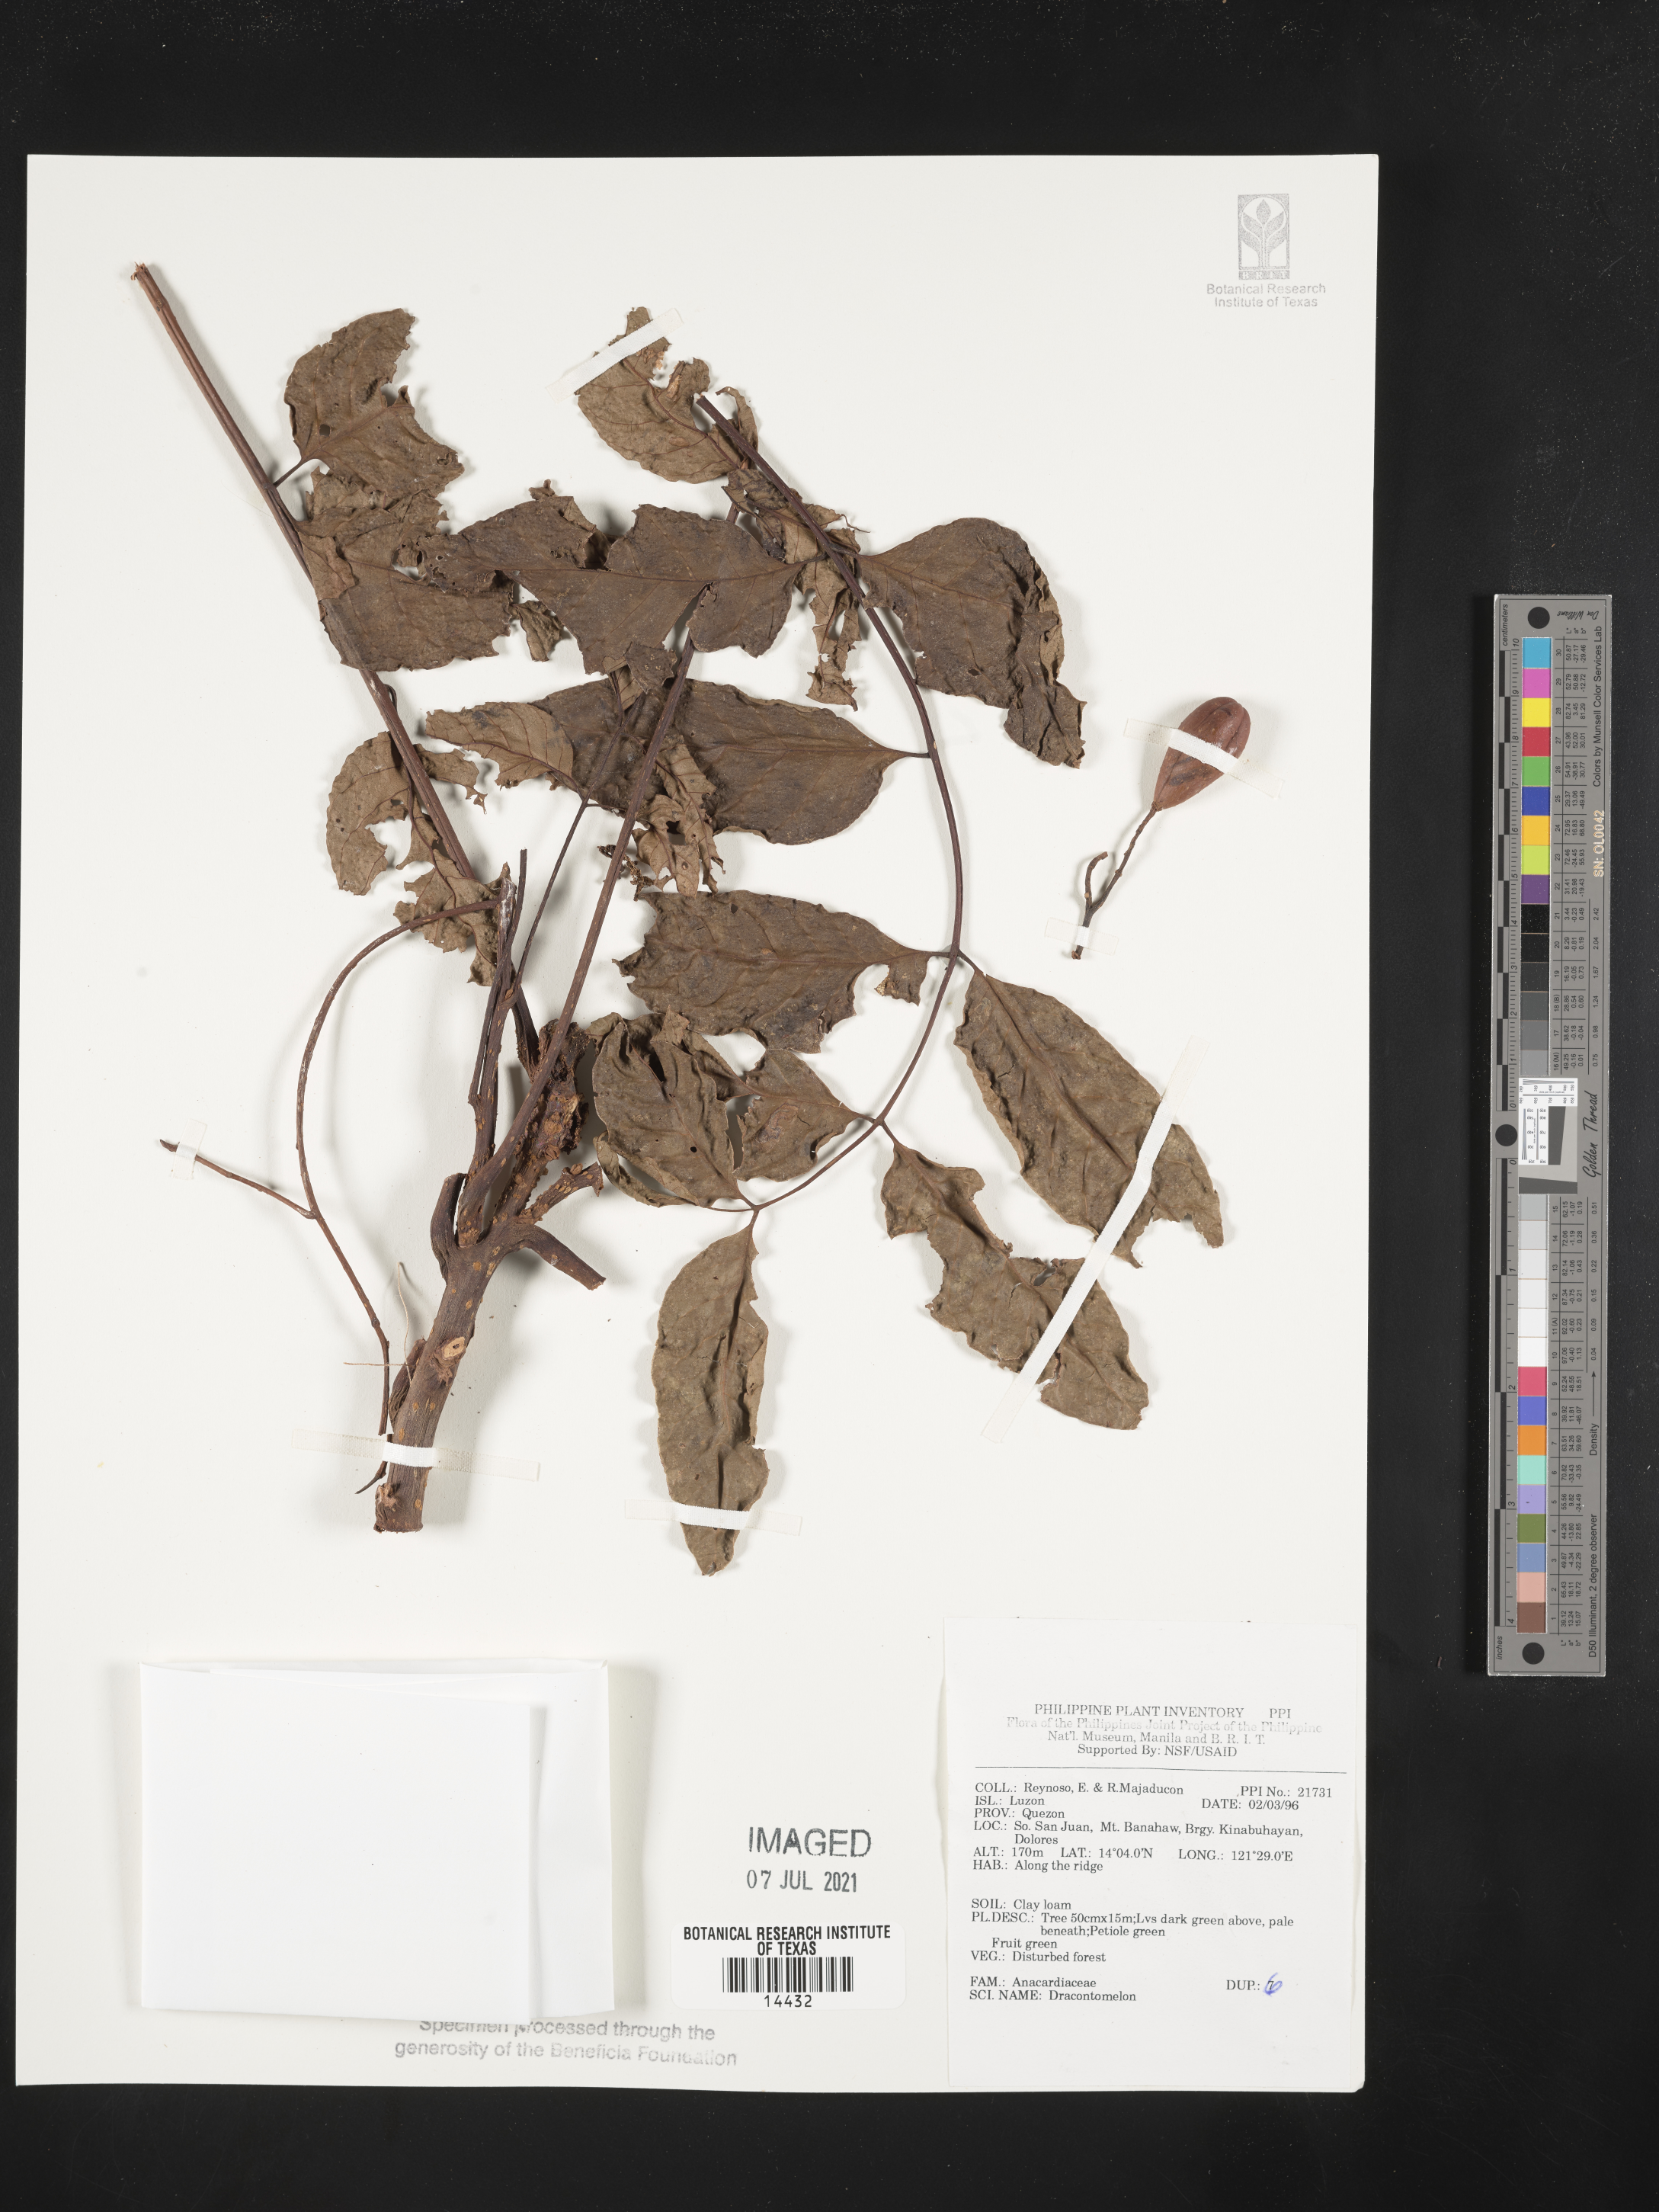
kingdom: Plantae
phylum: Tracheophyta
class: Magnoliopsida
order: Sapindales
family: Anacardiaceae
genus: Dracontomelon
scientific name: Dracontomelon
